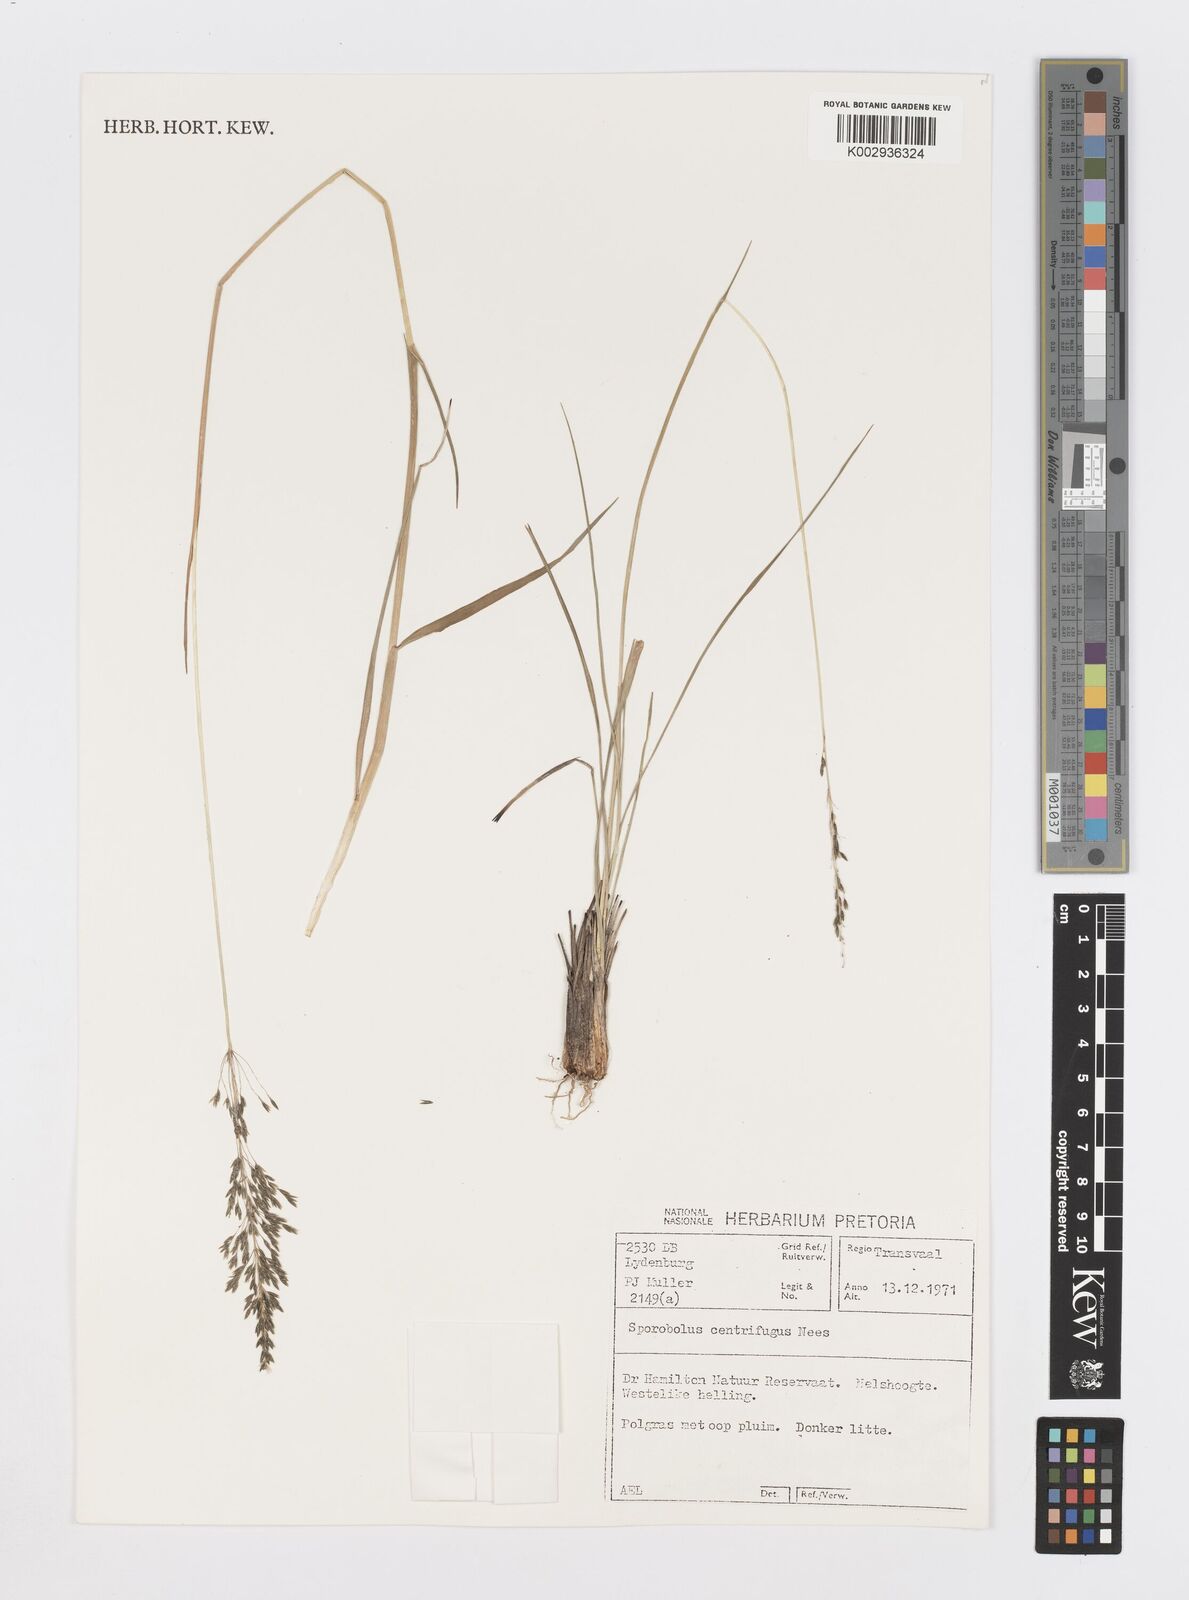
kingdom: Plantae
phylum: Tracheophyta
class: Liliopsida
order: Poales
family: Poaceae
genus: Sporobolus
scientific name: Sporobolus centrifugus
